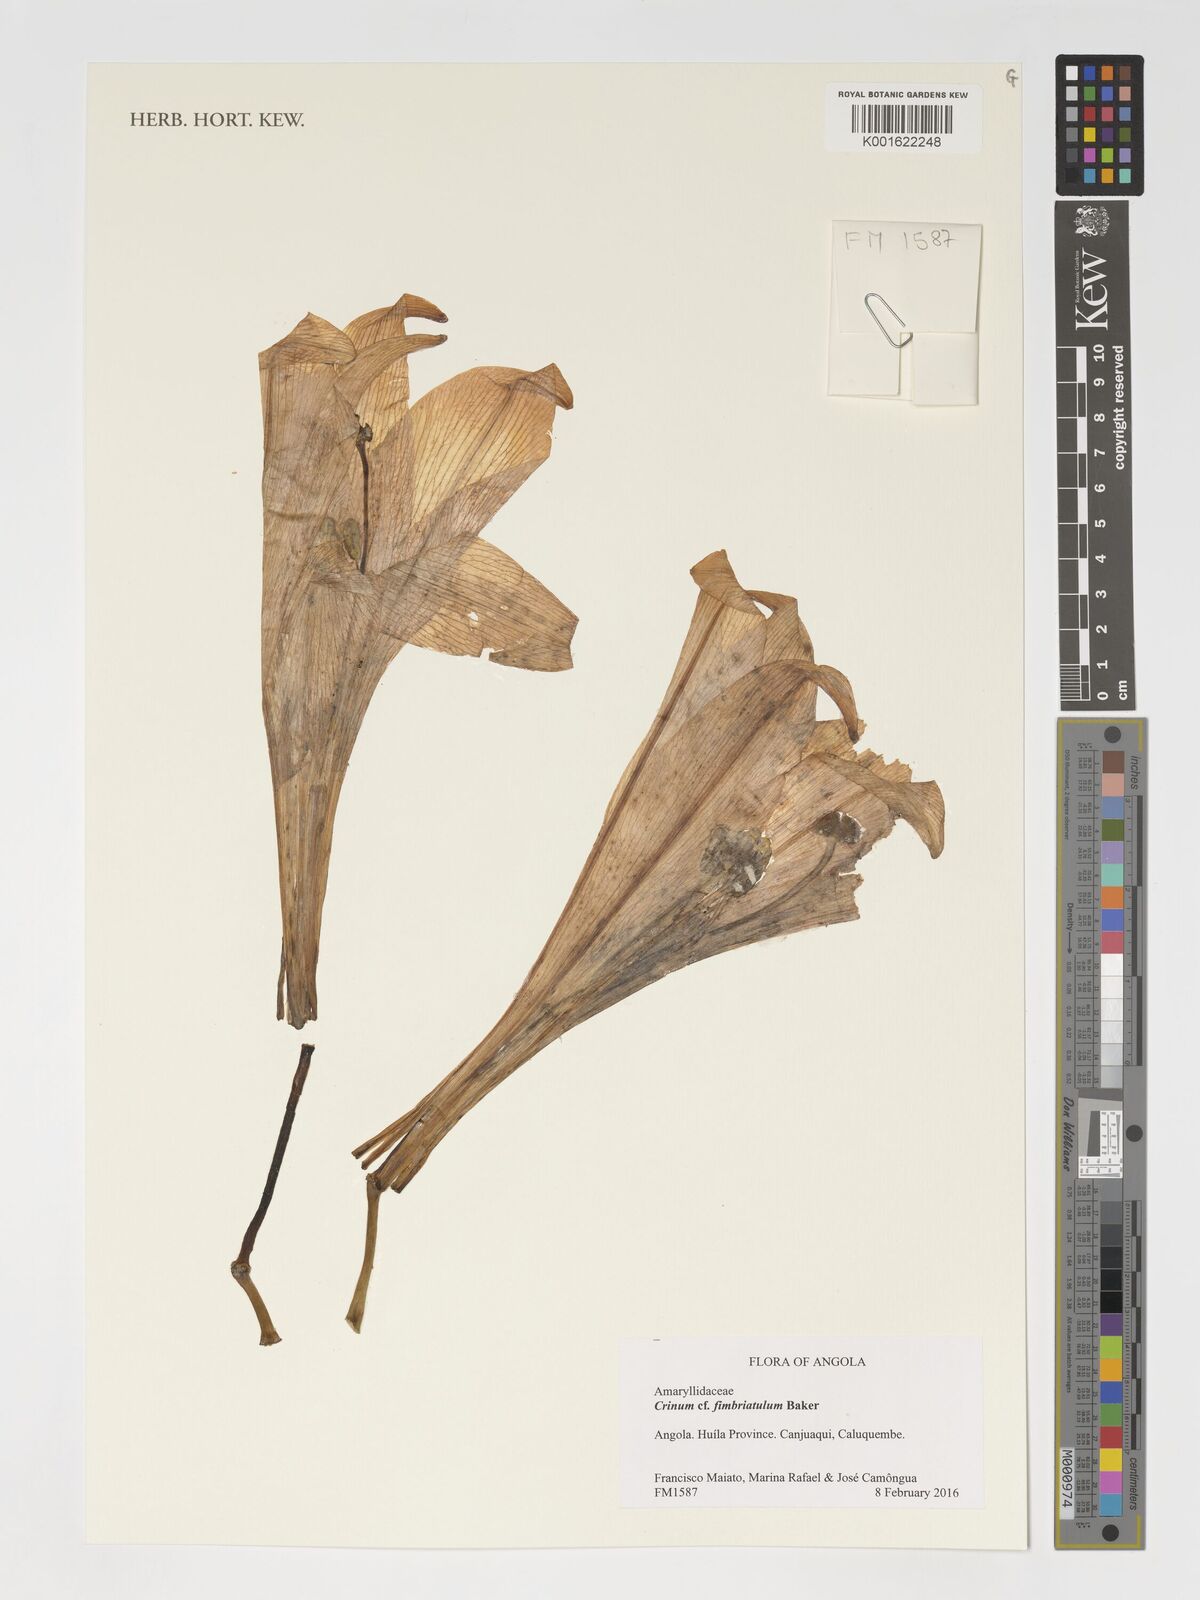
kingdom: Plantae
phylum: Tracheophyta
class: Liliopsida
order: Asparagales
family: Amaryllidaceae
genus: Crinum
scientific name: Crinum fimbriatulum
